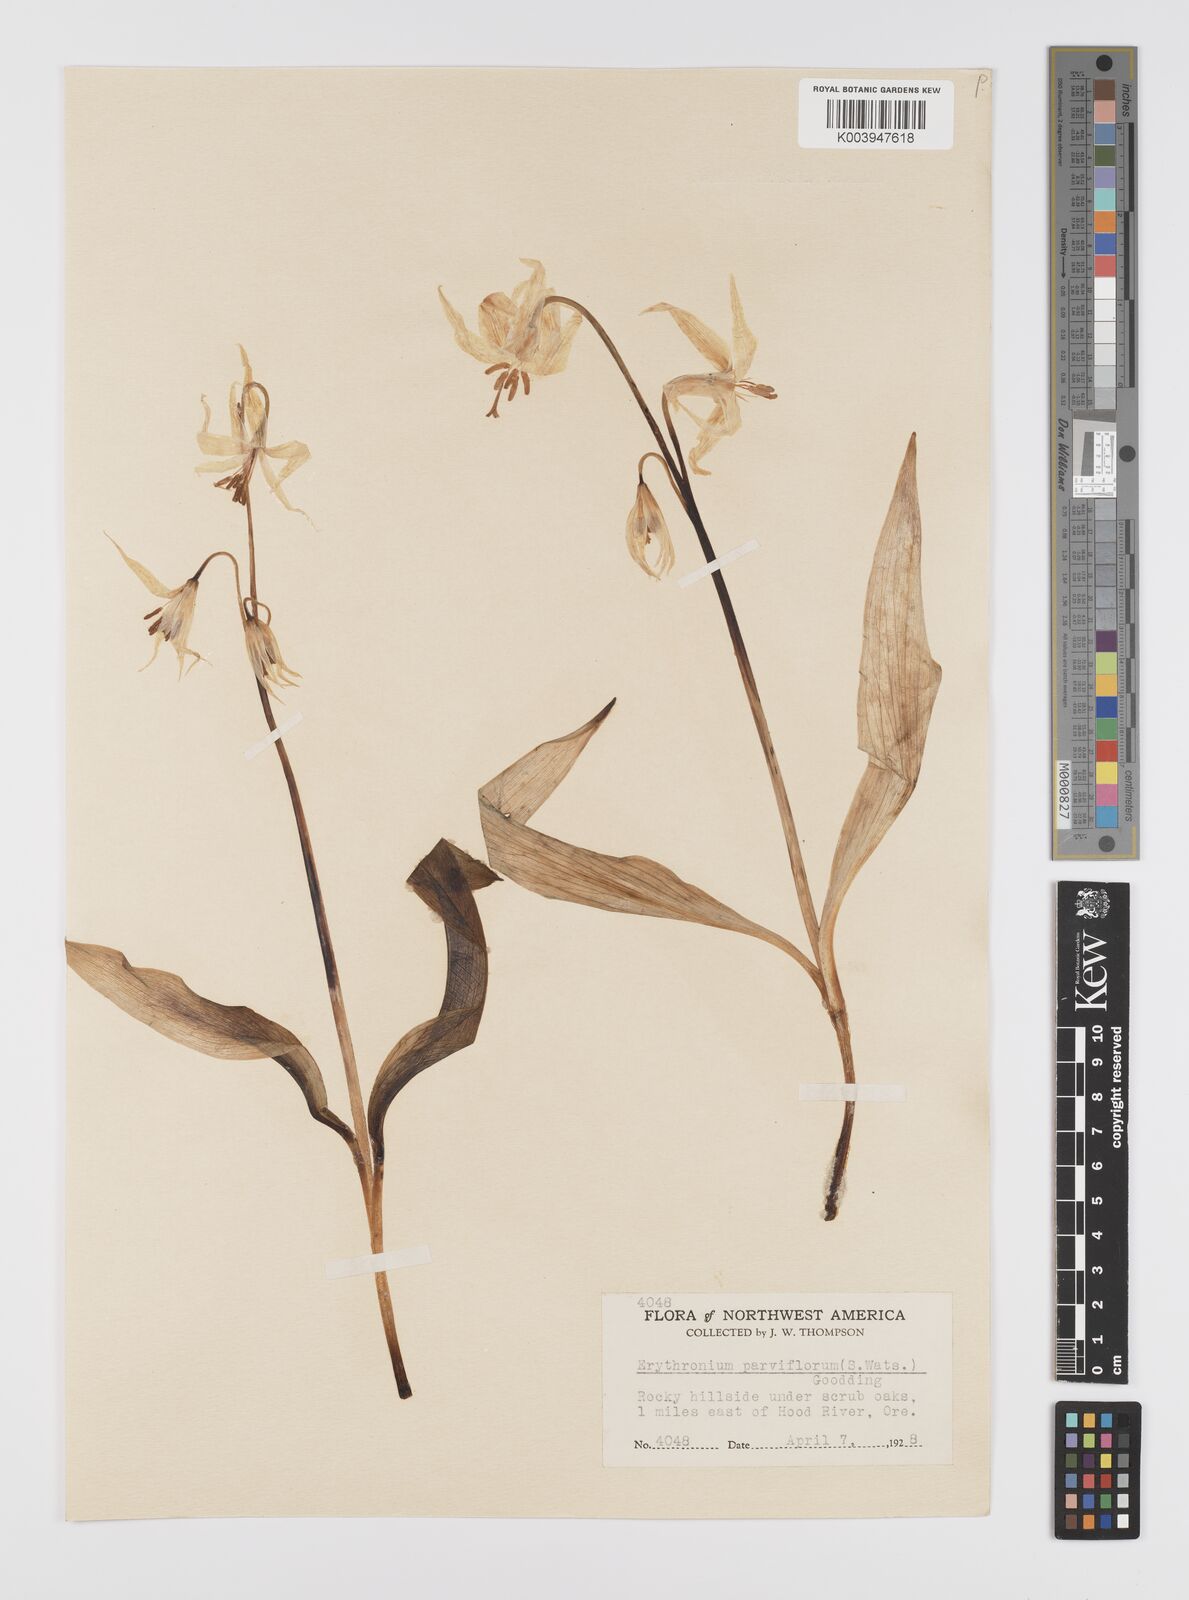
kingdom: Plantae
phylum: Tracheophyta
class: Liliopsida
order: Liliales
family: Liliaceae
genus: Erythronium
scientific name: Erythronium grandiflorum
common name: Avalanche-lily
